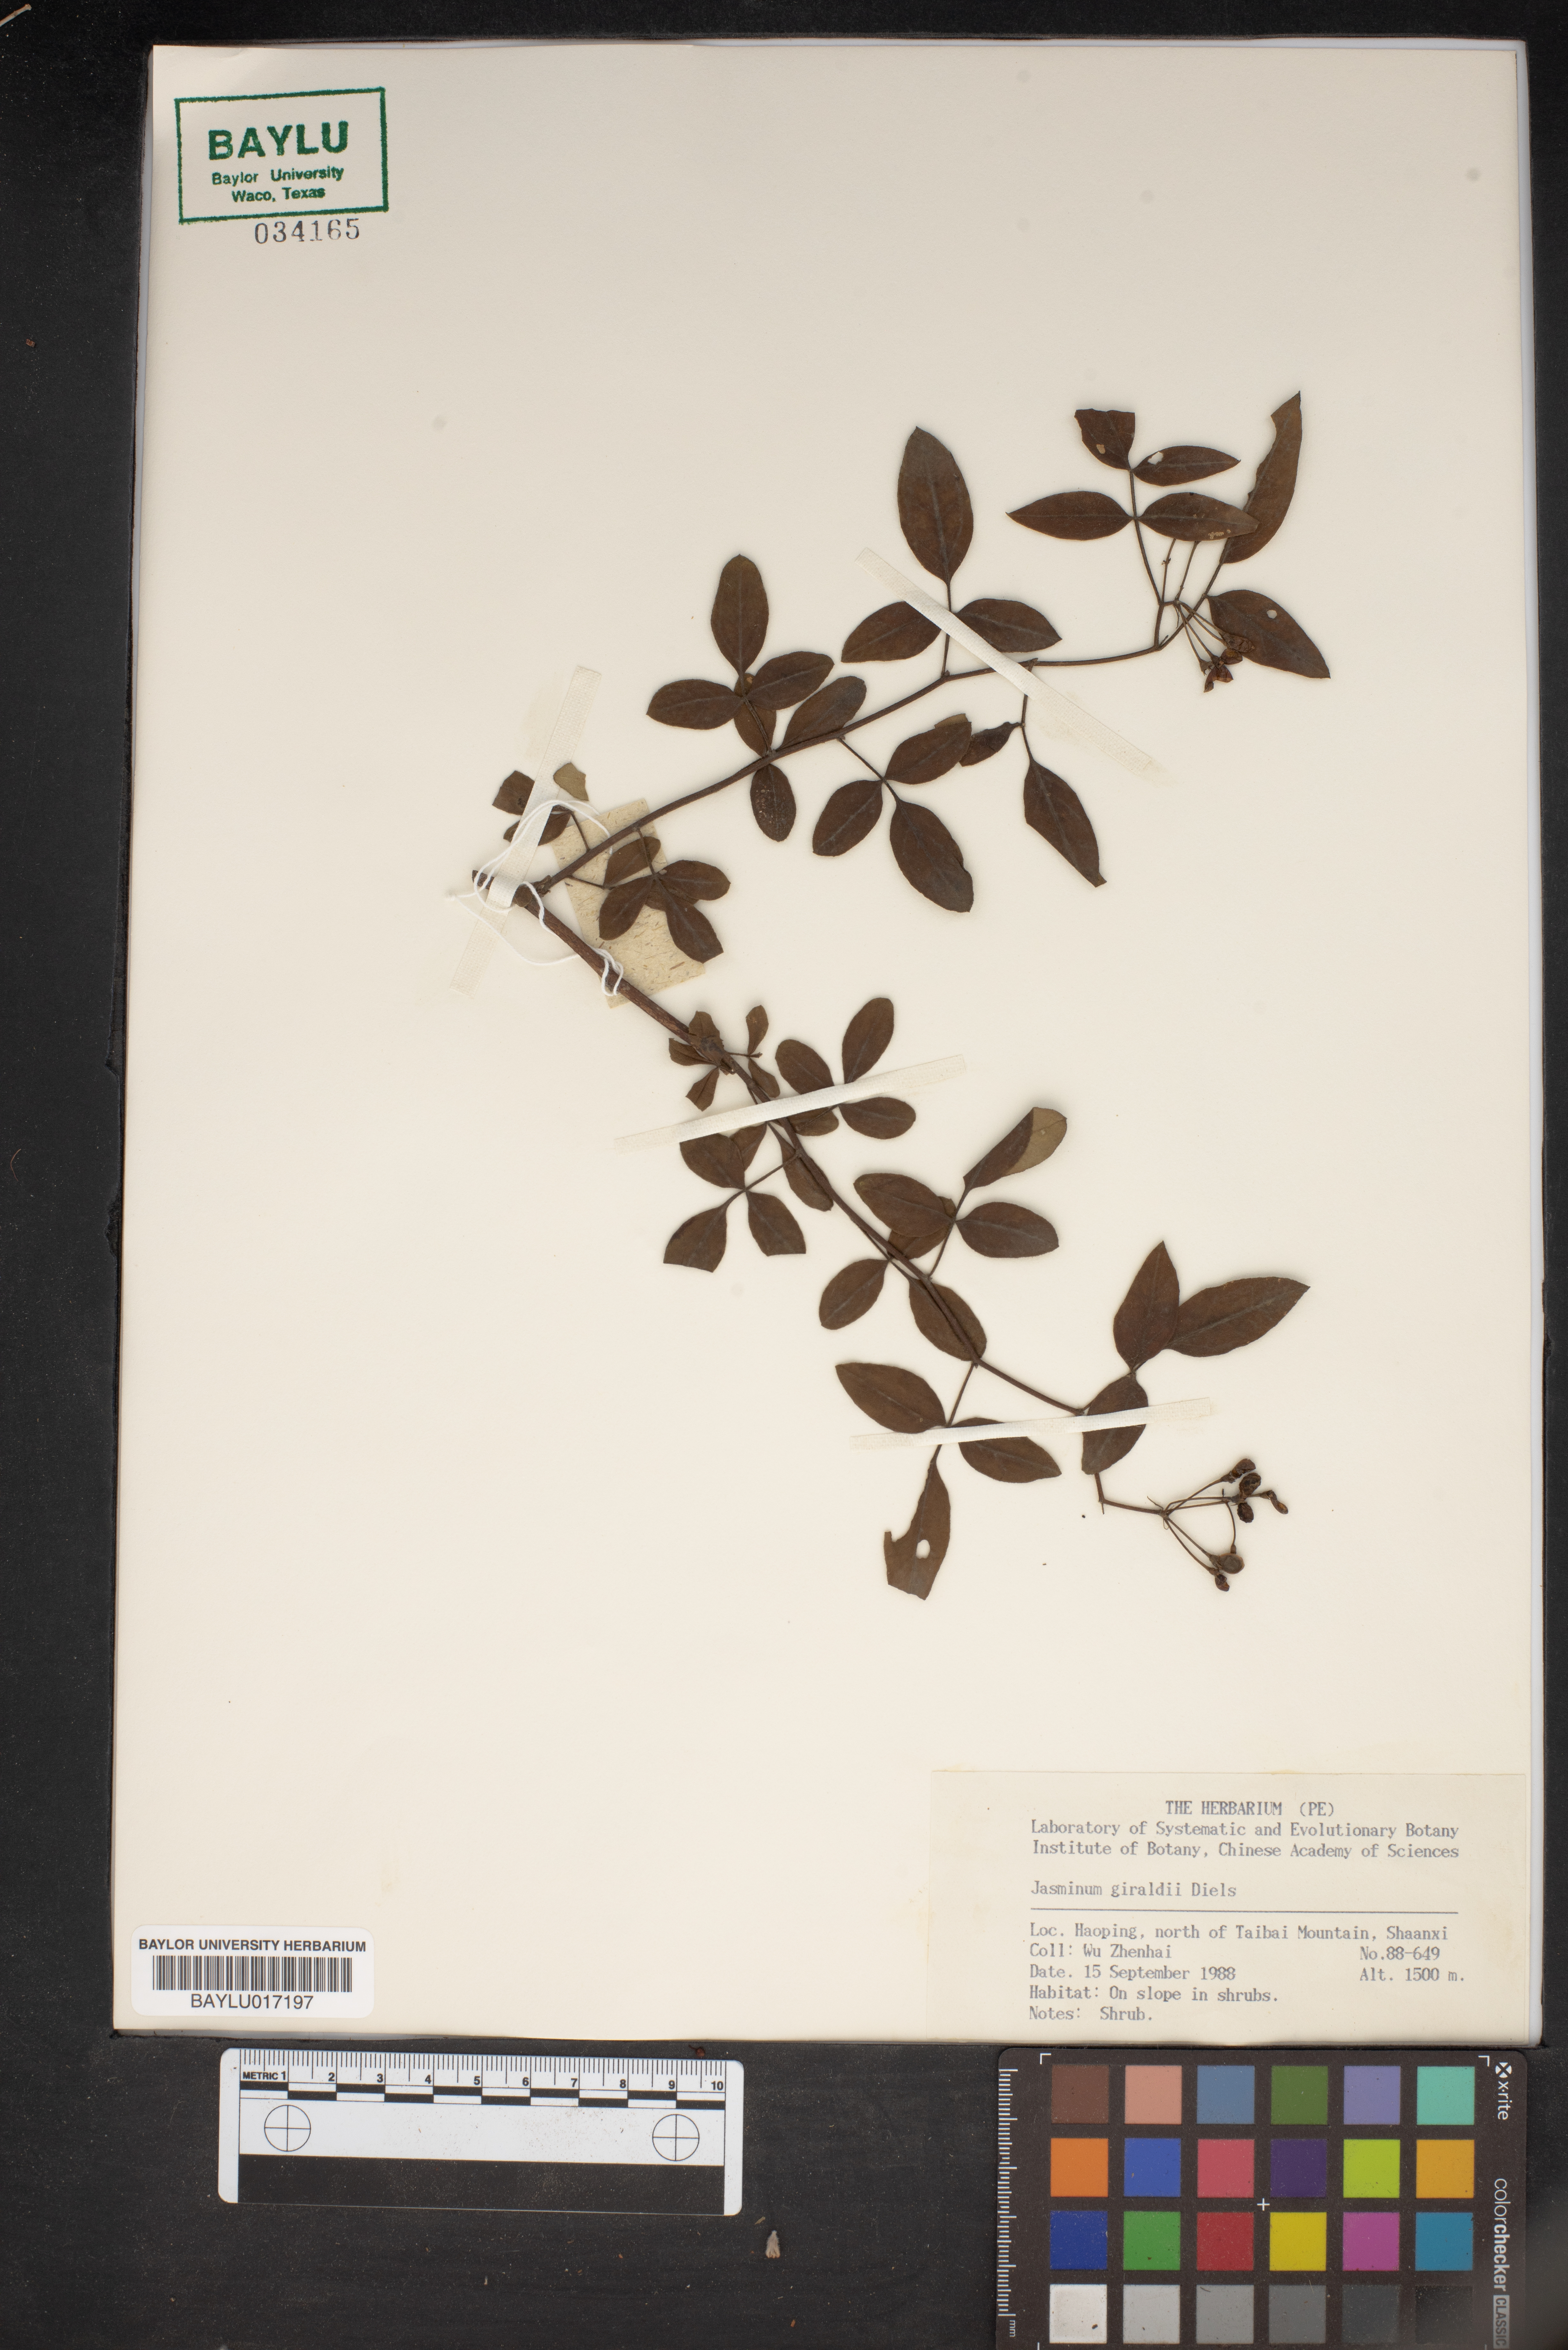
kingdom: Plantae
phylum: Tracheophyta
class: Magnoliopsida
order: Lamiales
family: Oleaceae
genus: Chrysojasminum
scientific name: Chrysojasminum floridum
